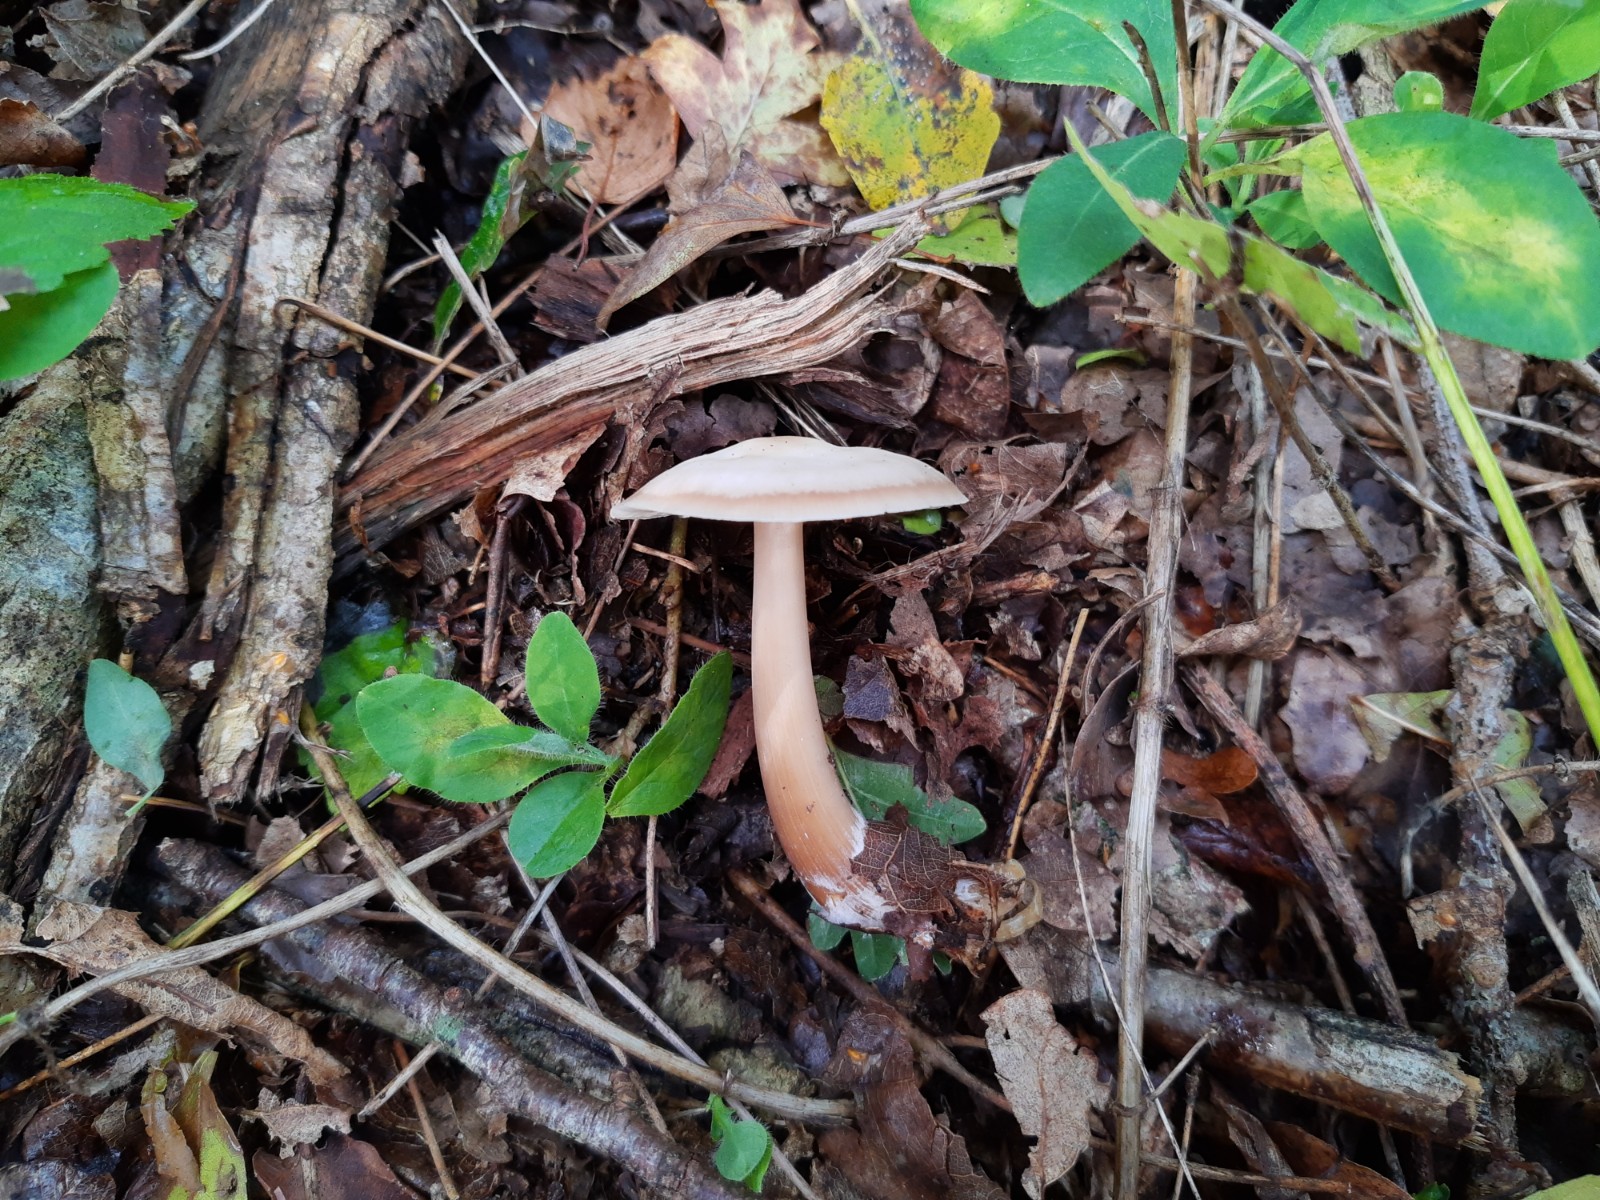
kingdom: Fungi
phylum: Basidiomycota
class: Agaricomycetes
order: Agaricales
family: Omphalotaceae
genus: Rhodocollybia
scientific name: Rhodocollybia asema
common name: horngrå fladhat
